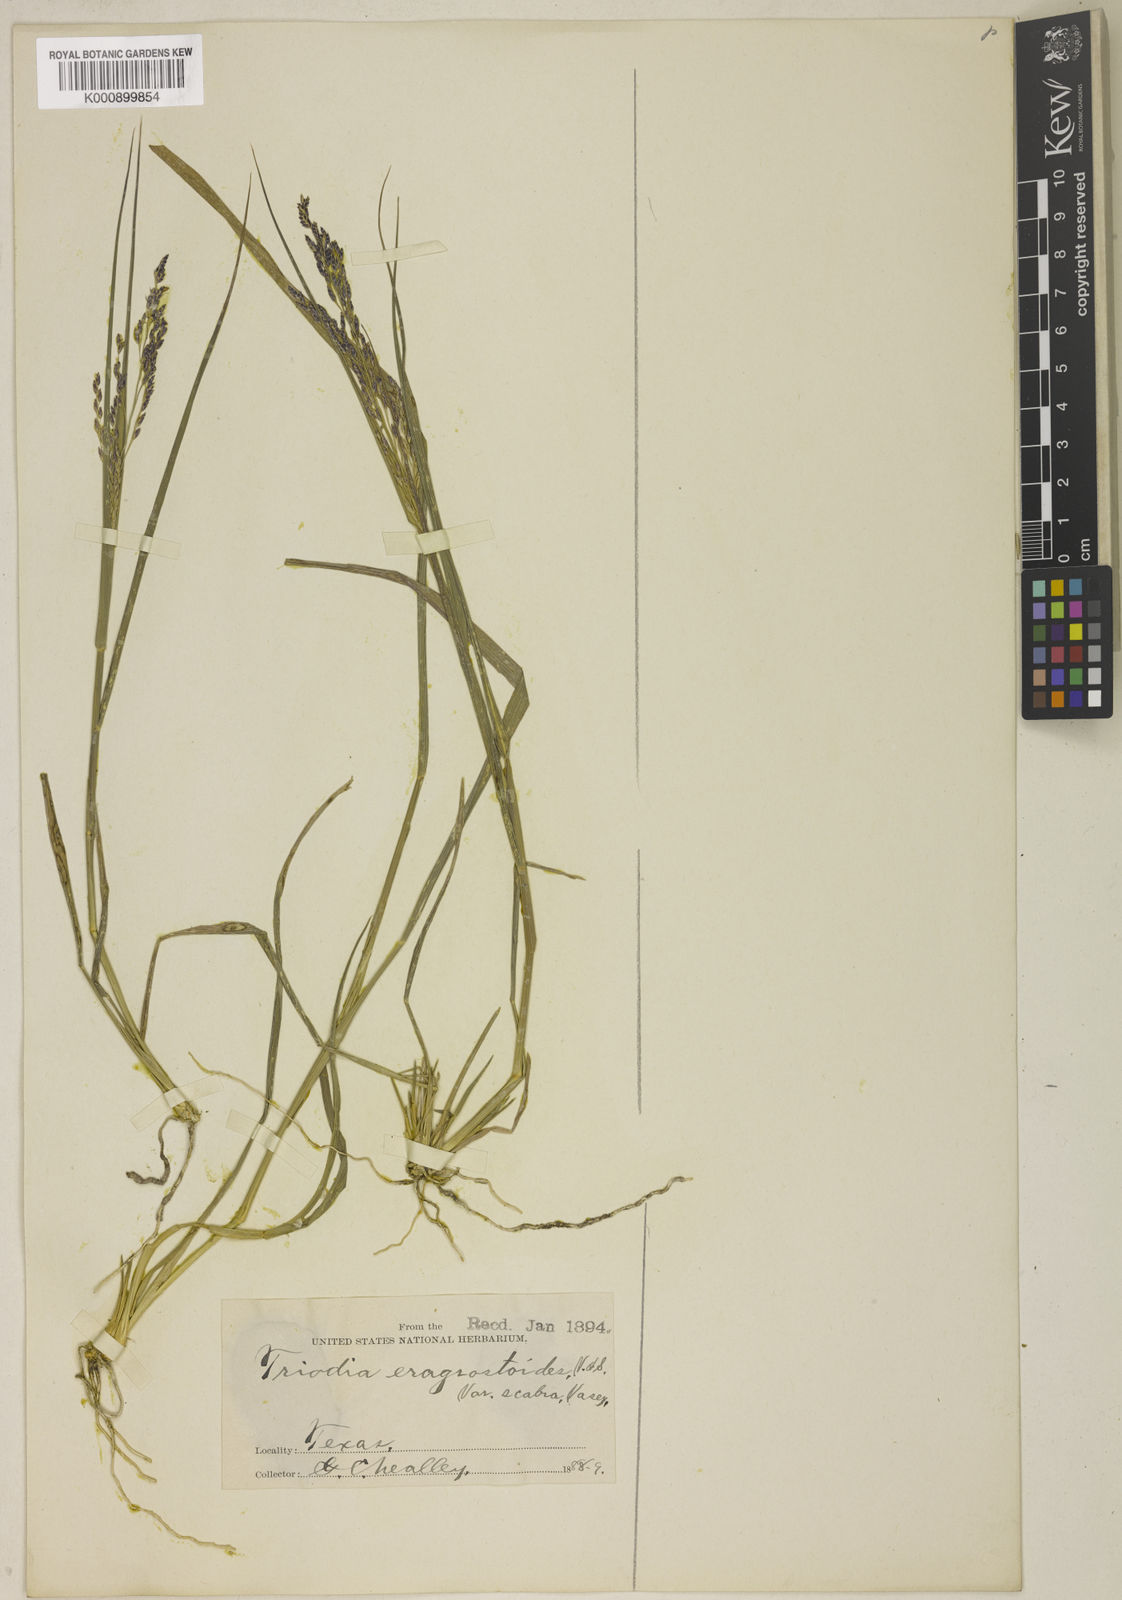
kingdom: Plantae
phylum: Tracheophyta
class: Liliopsida
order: Poales
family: Poaceae
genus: Triplasiella
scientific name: Triplasiella eragrostoides
